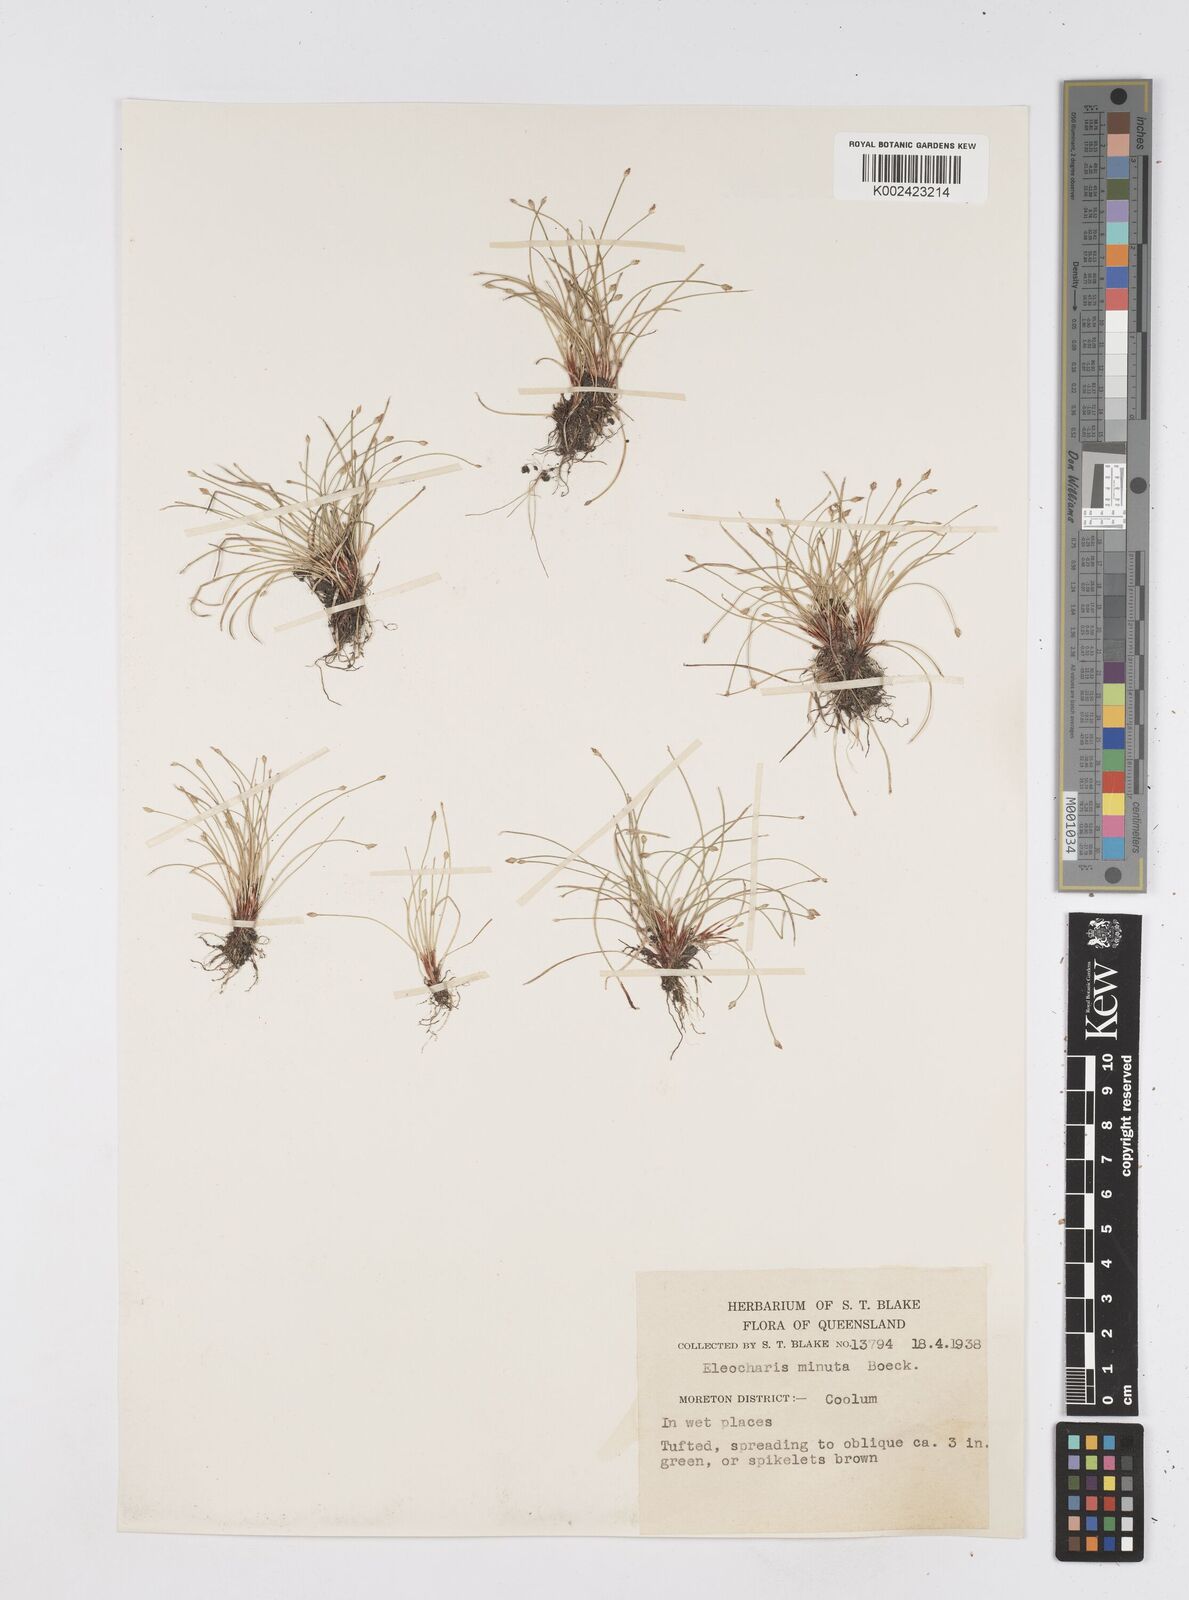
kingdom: Plantae
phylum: Tracheophyta
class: Liliopsida
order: Poales
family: Cyperaceae
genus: Eleocharis
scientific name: Eleocharis minuta
